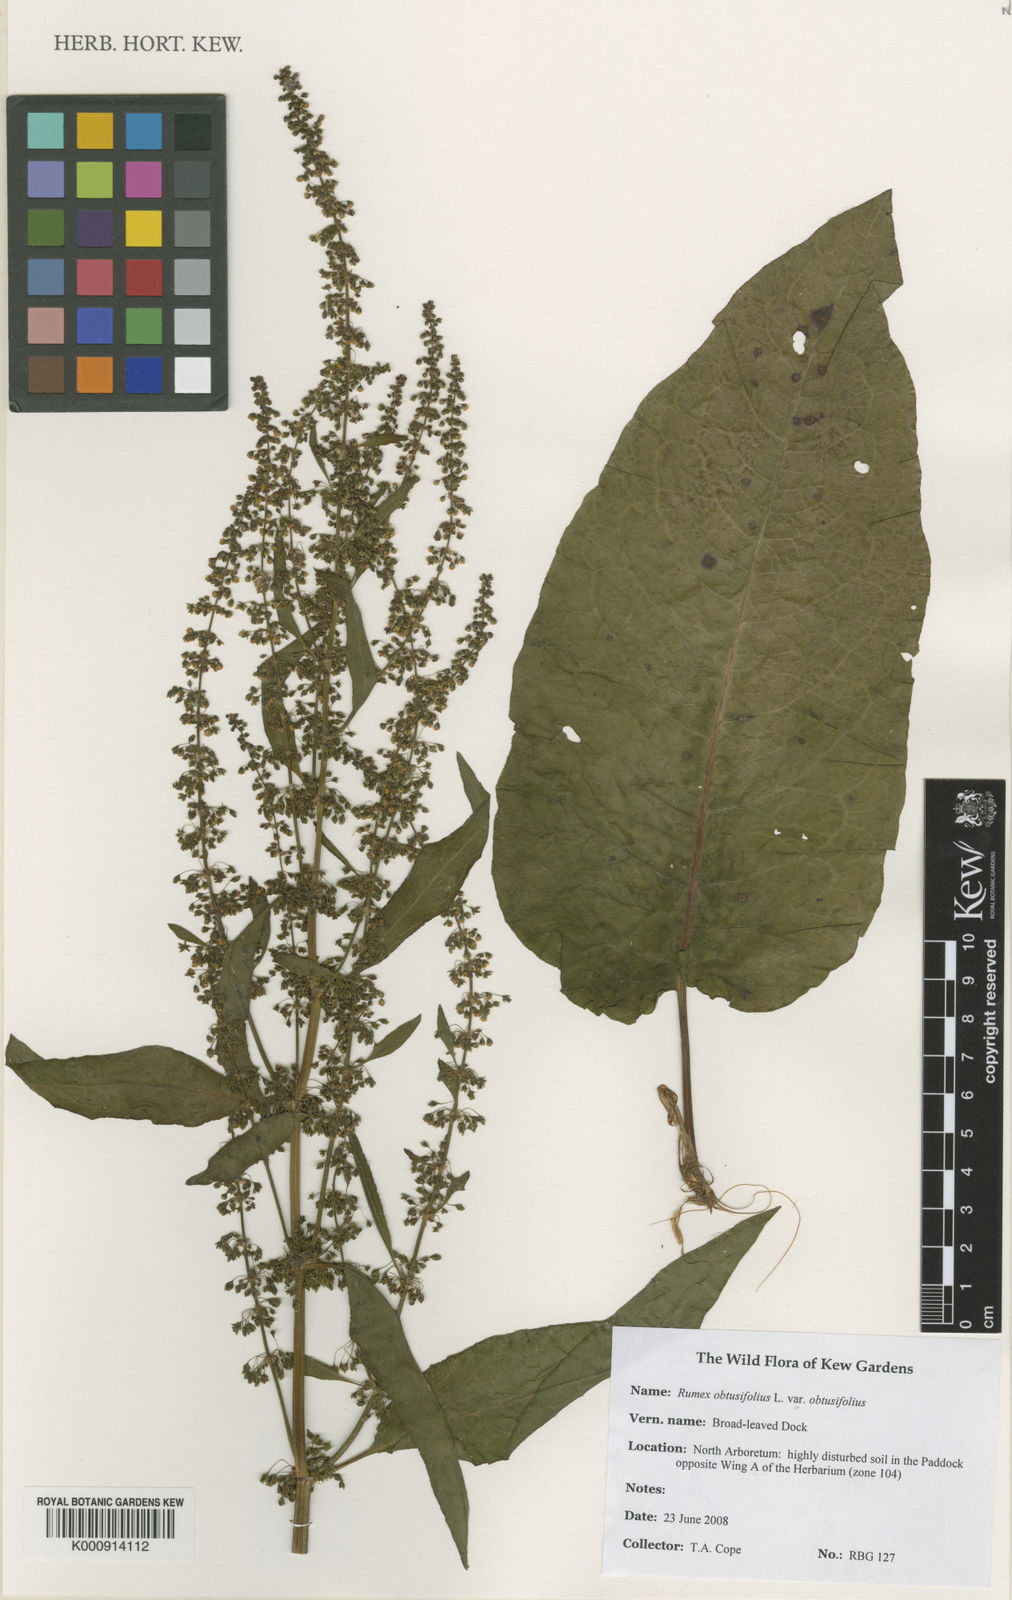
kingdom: Plantae
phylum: Tracheophyta
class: Magnoliopsida
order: Caryophyllales
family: Polygonaceae
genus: Rumex
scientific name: Rumex obtusifolius
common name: Bitter dock
